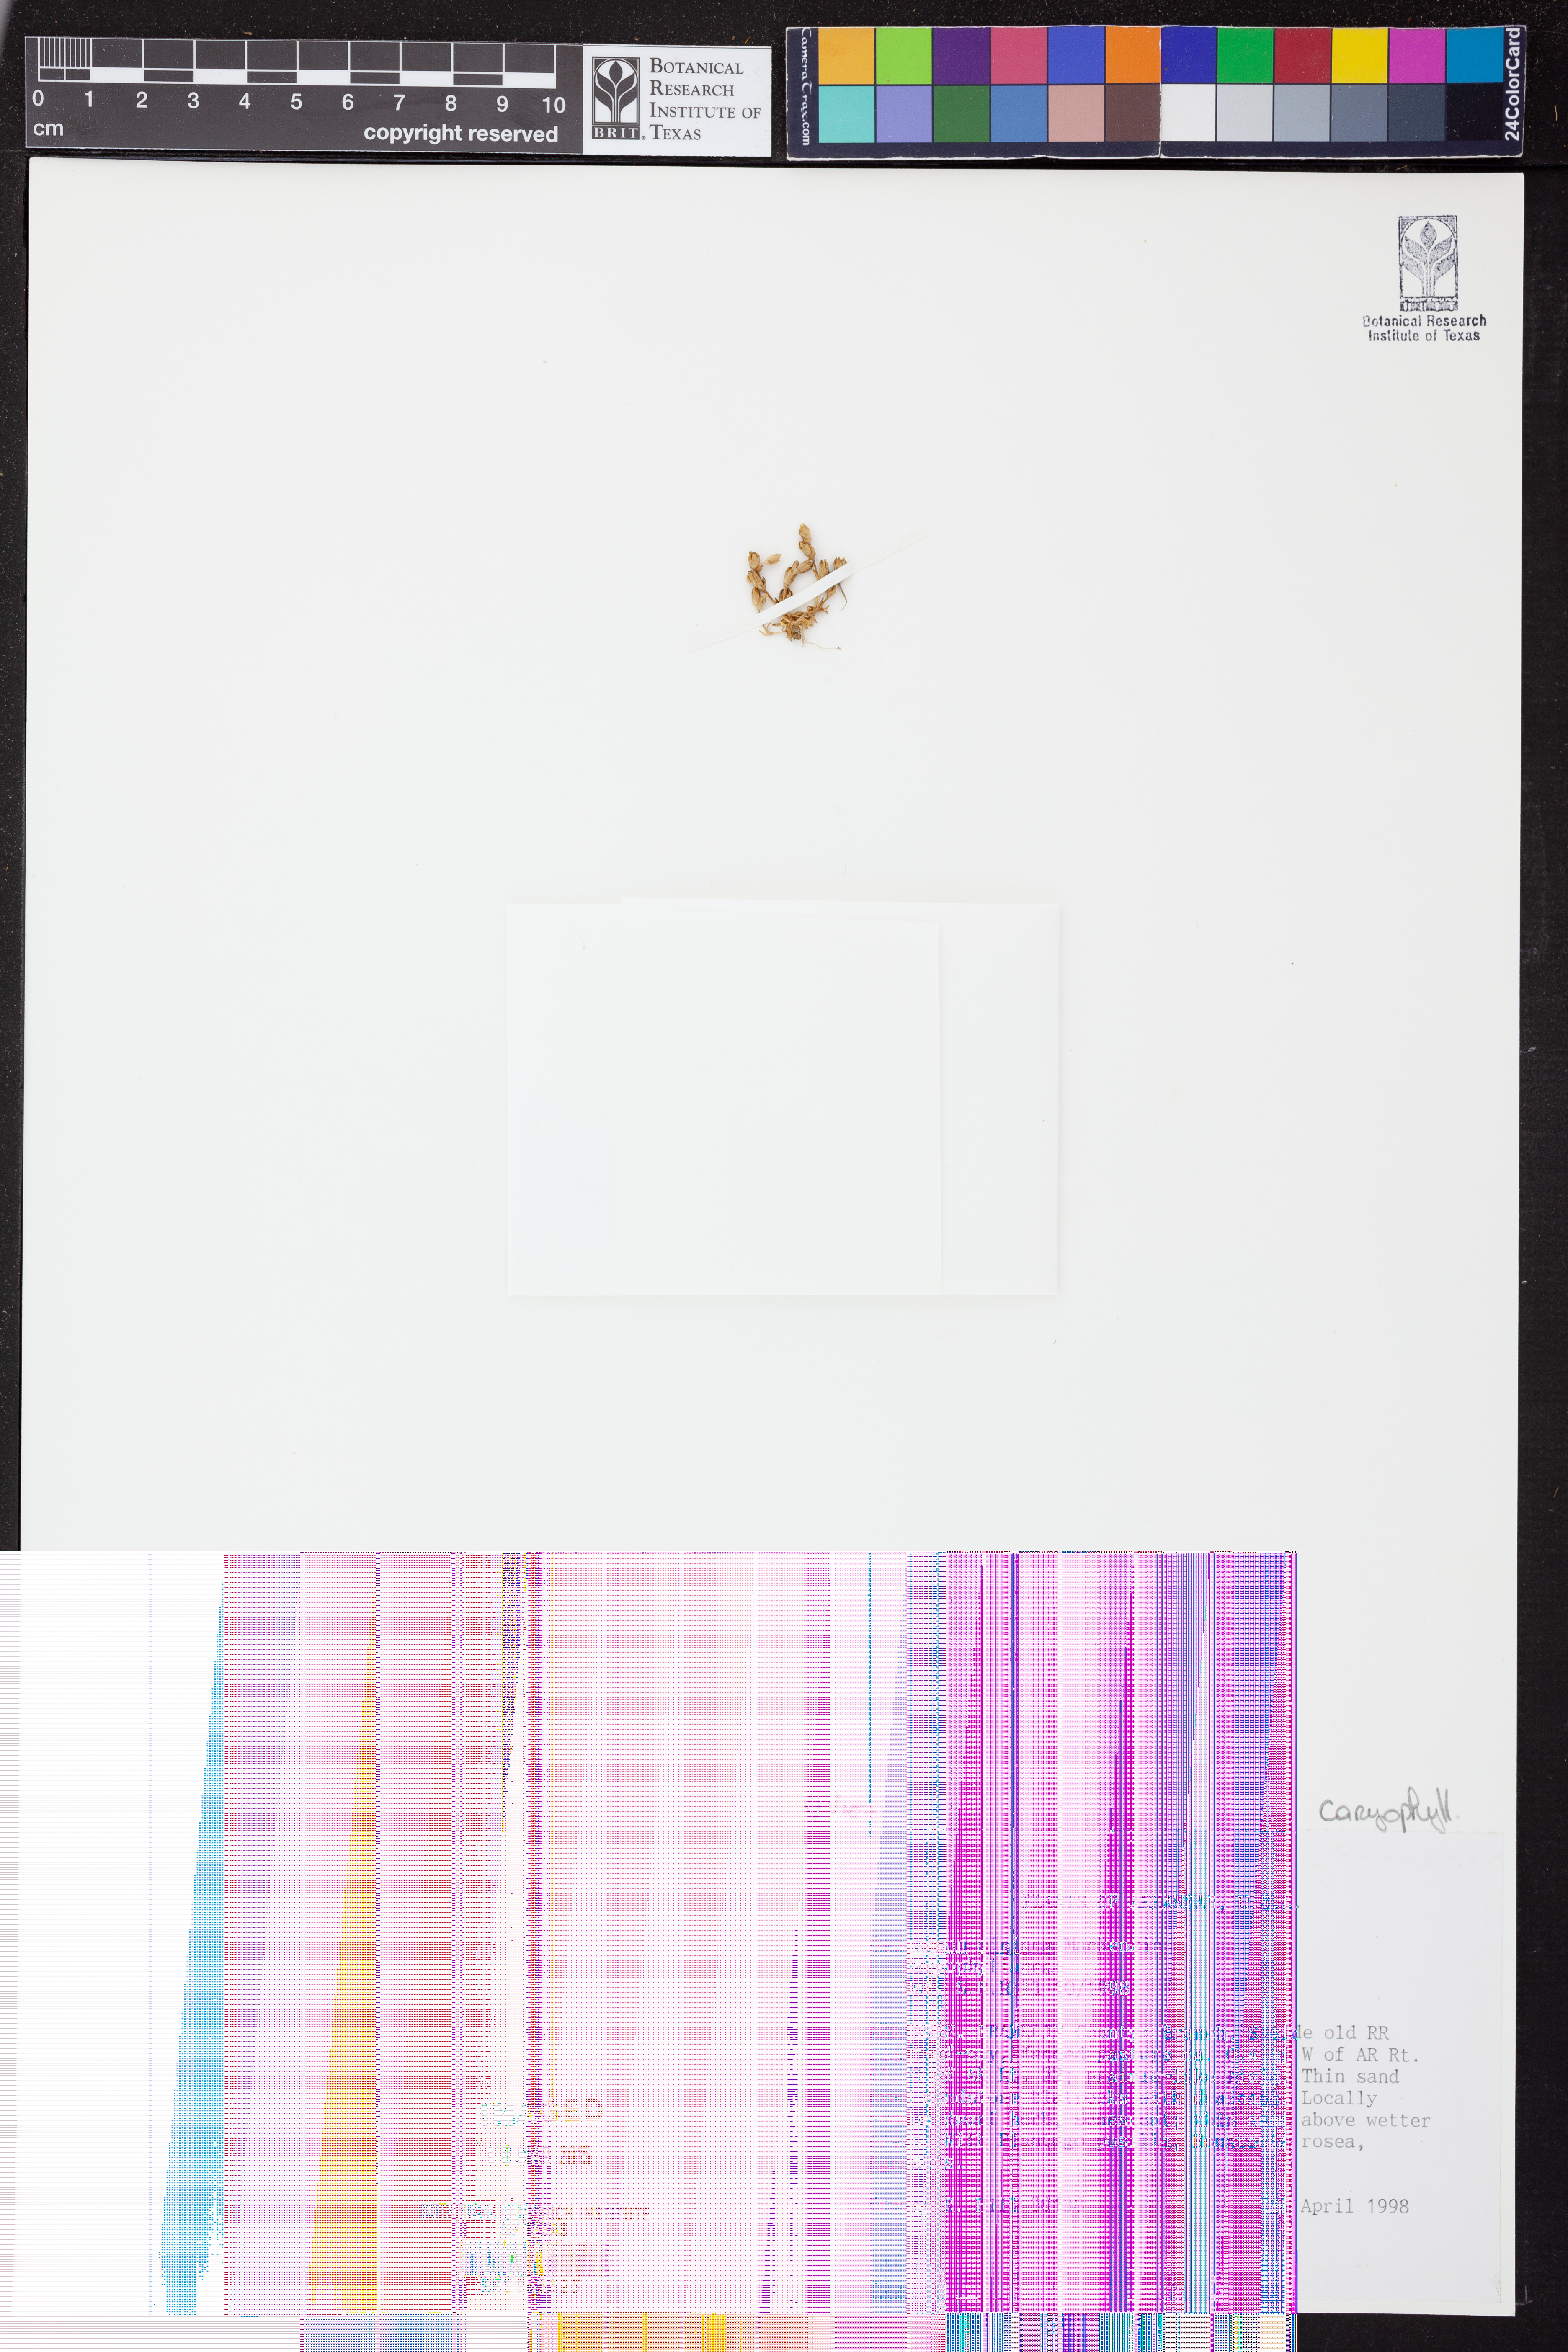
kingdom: Plantae
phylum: Tracheophyta
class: Magnoliopsida
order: Caryophyllales
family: Caryophyllaceae
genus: Geocarpon
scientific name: Geocarpon
